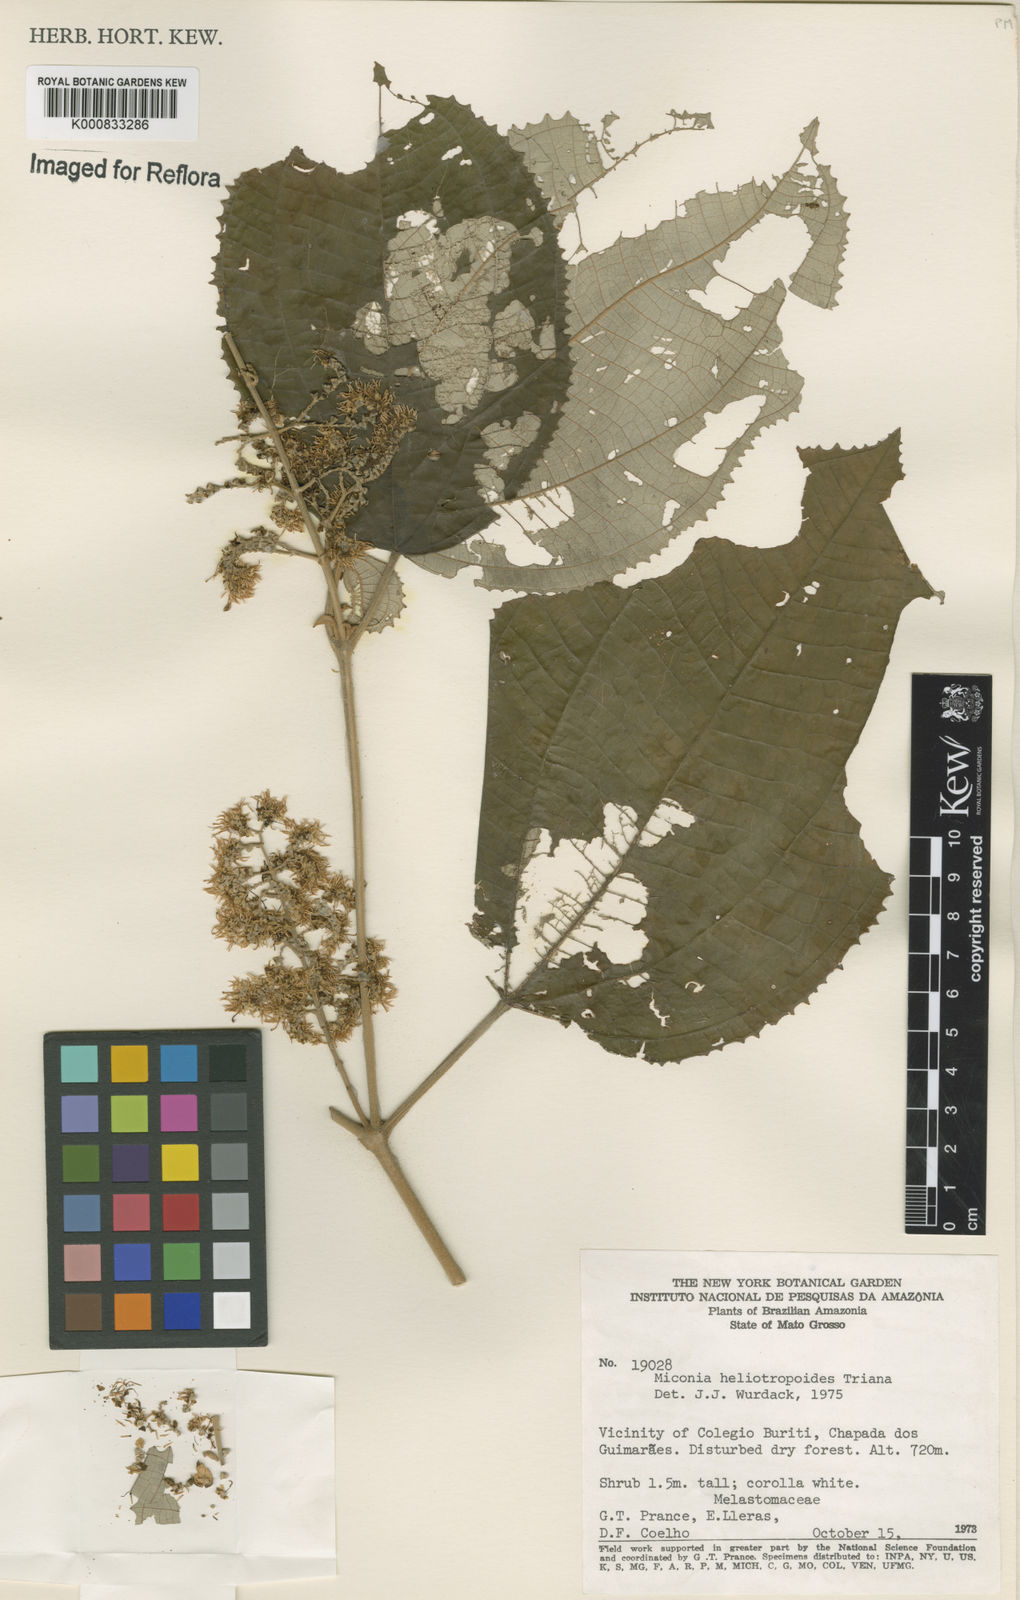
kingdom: Plantae
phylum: Tracheophyta
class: Magnoliopsida
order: Myrtales
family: Melastomataceae
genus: Miconia
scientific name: Miconia heliotropoides
